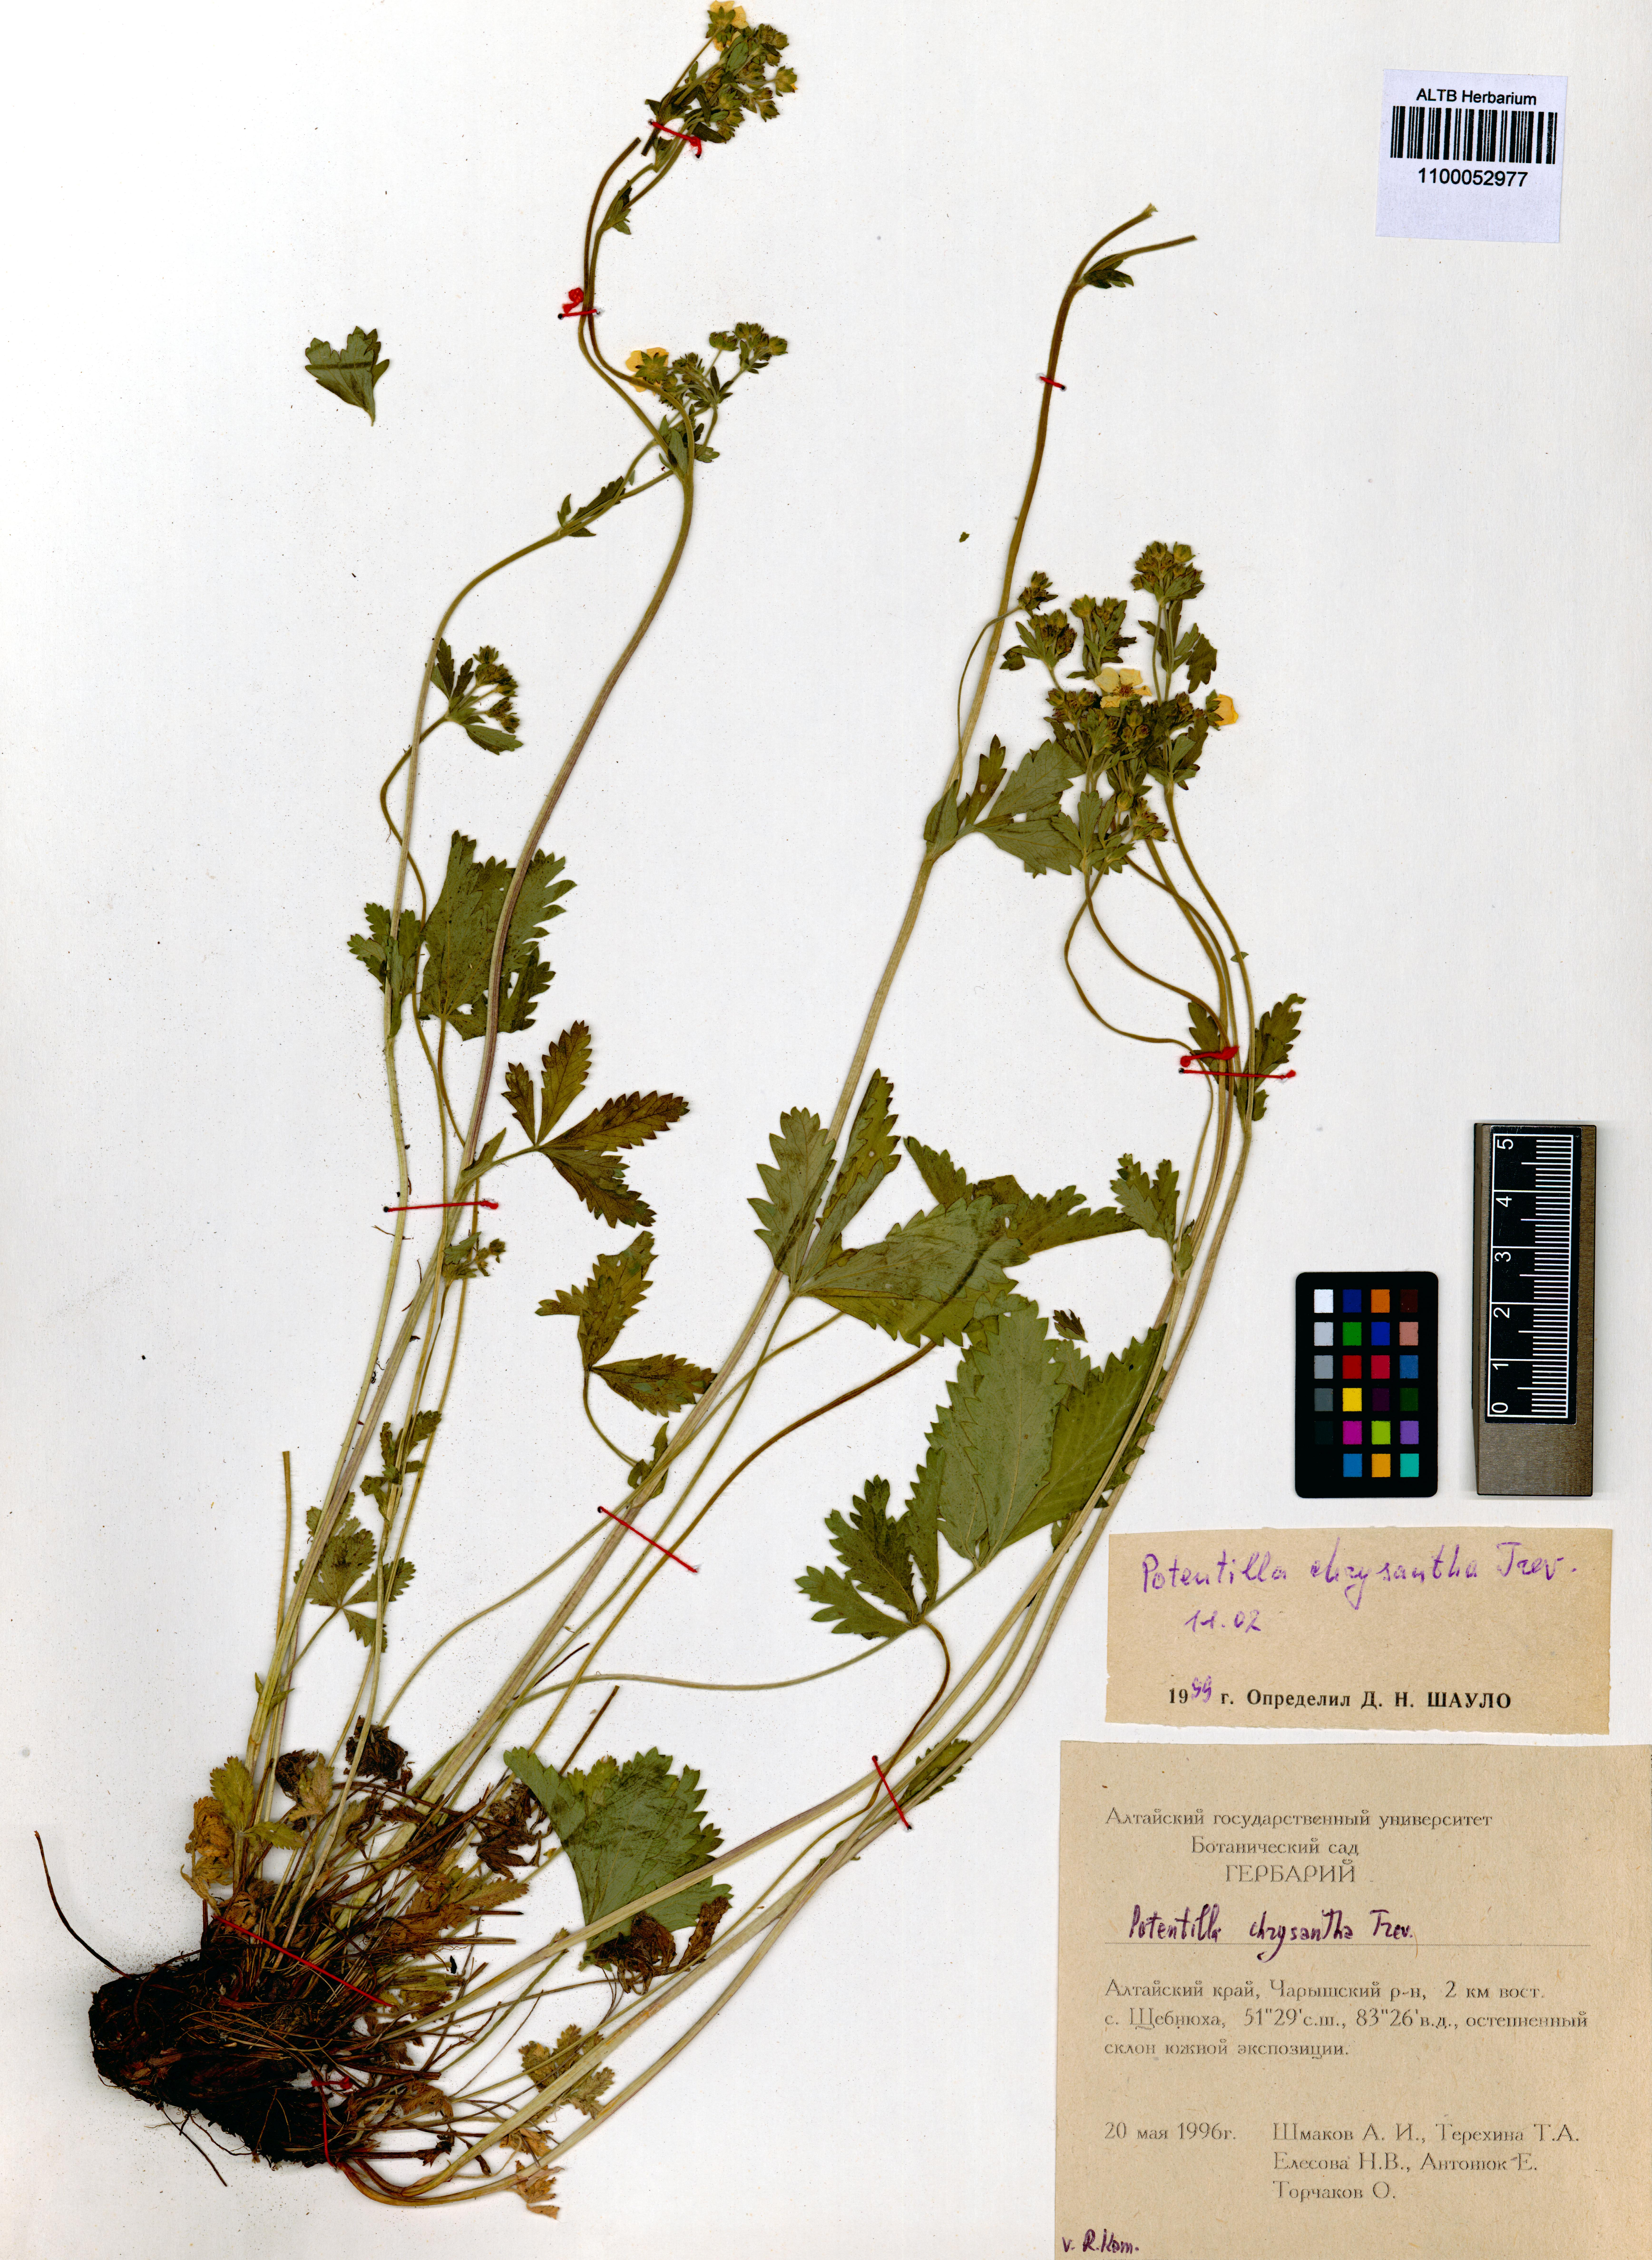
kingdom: Plantae
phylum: Tracheophyta
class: Magnoliopsida
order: Rosales
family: Rosaceae
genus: Potentilla
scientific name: Potentilla chrysantha
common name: Thuringian cinquefoil
